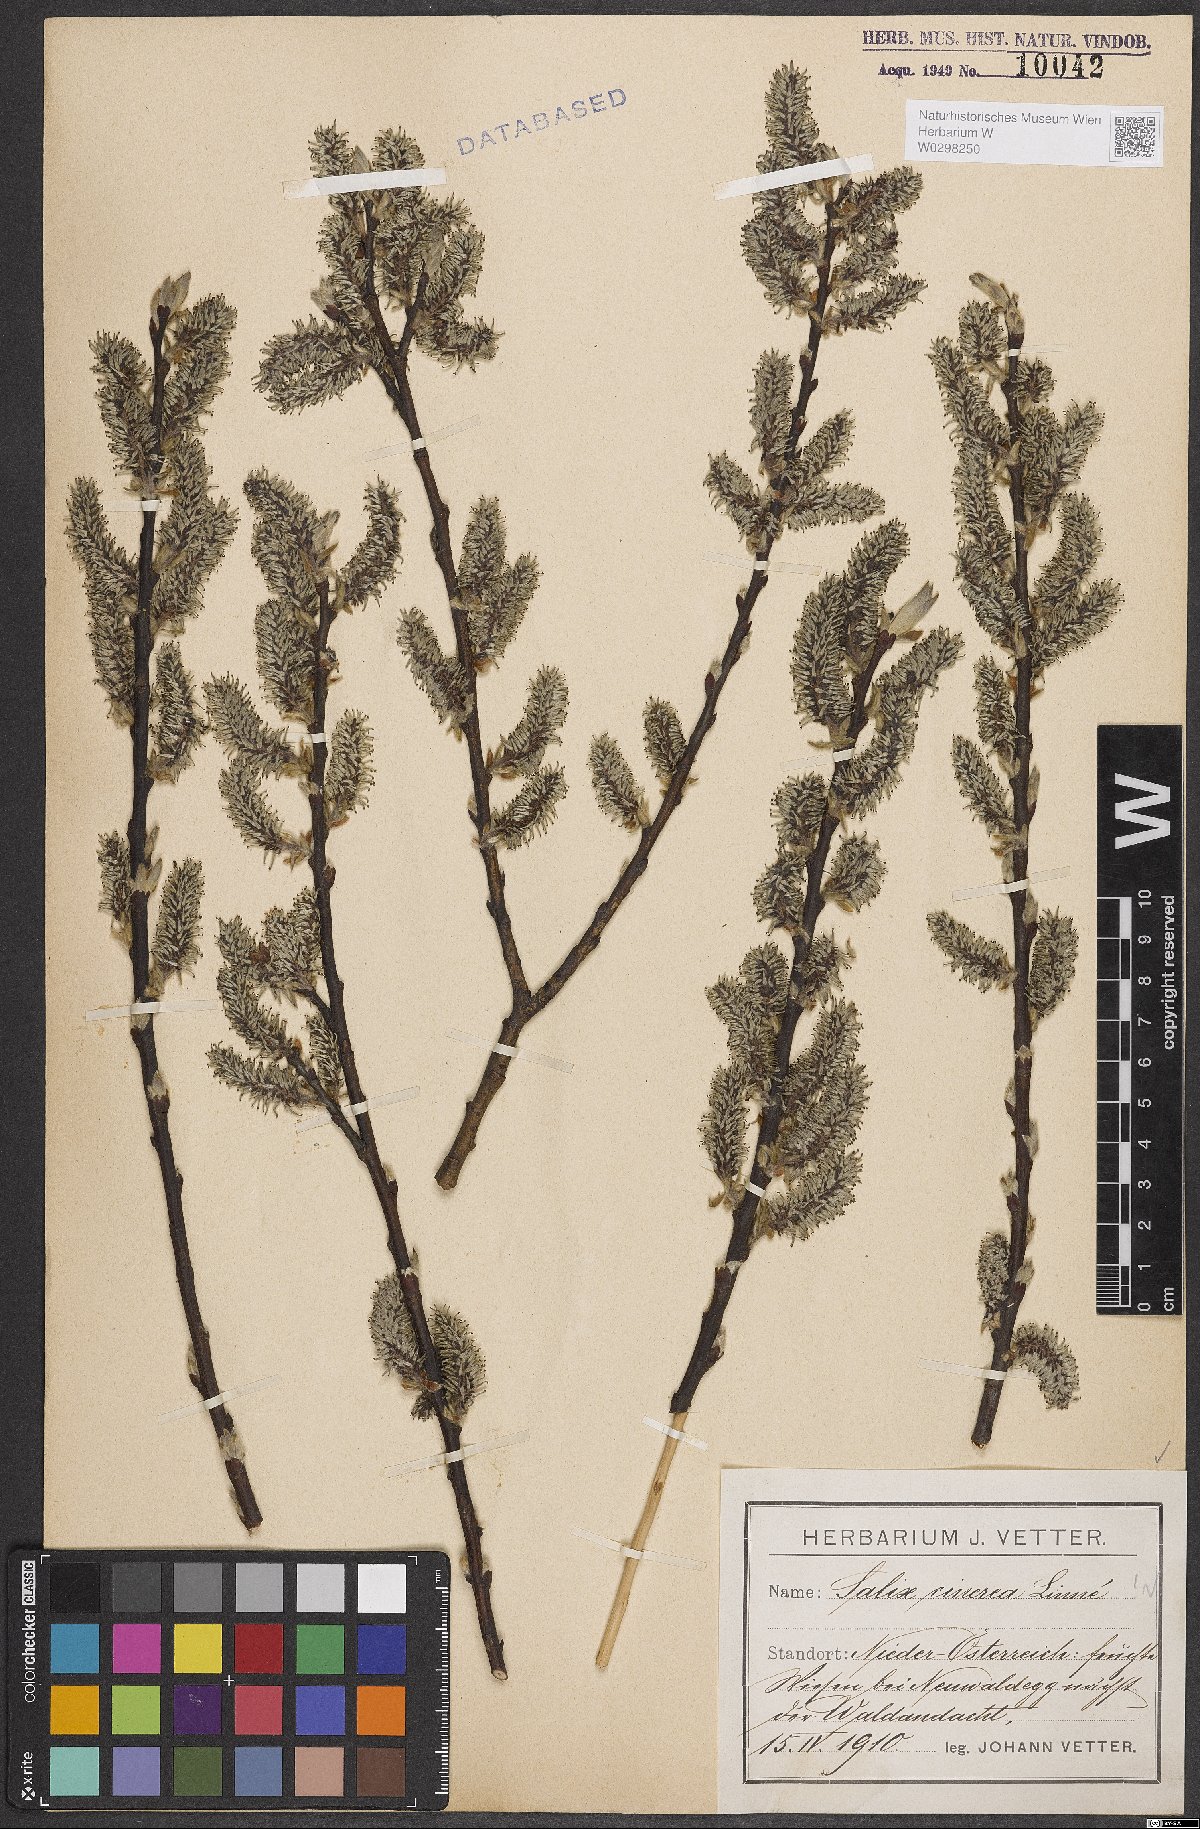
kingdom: Plantae
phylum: Tracheophyta
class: Magnoliopsida
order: Malpighiales
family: Salicaceae
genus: Salix
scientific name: Salix cinerea
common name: Common sallow
